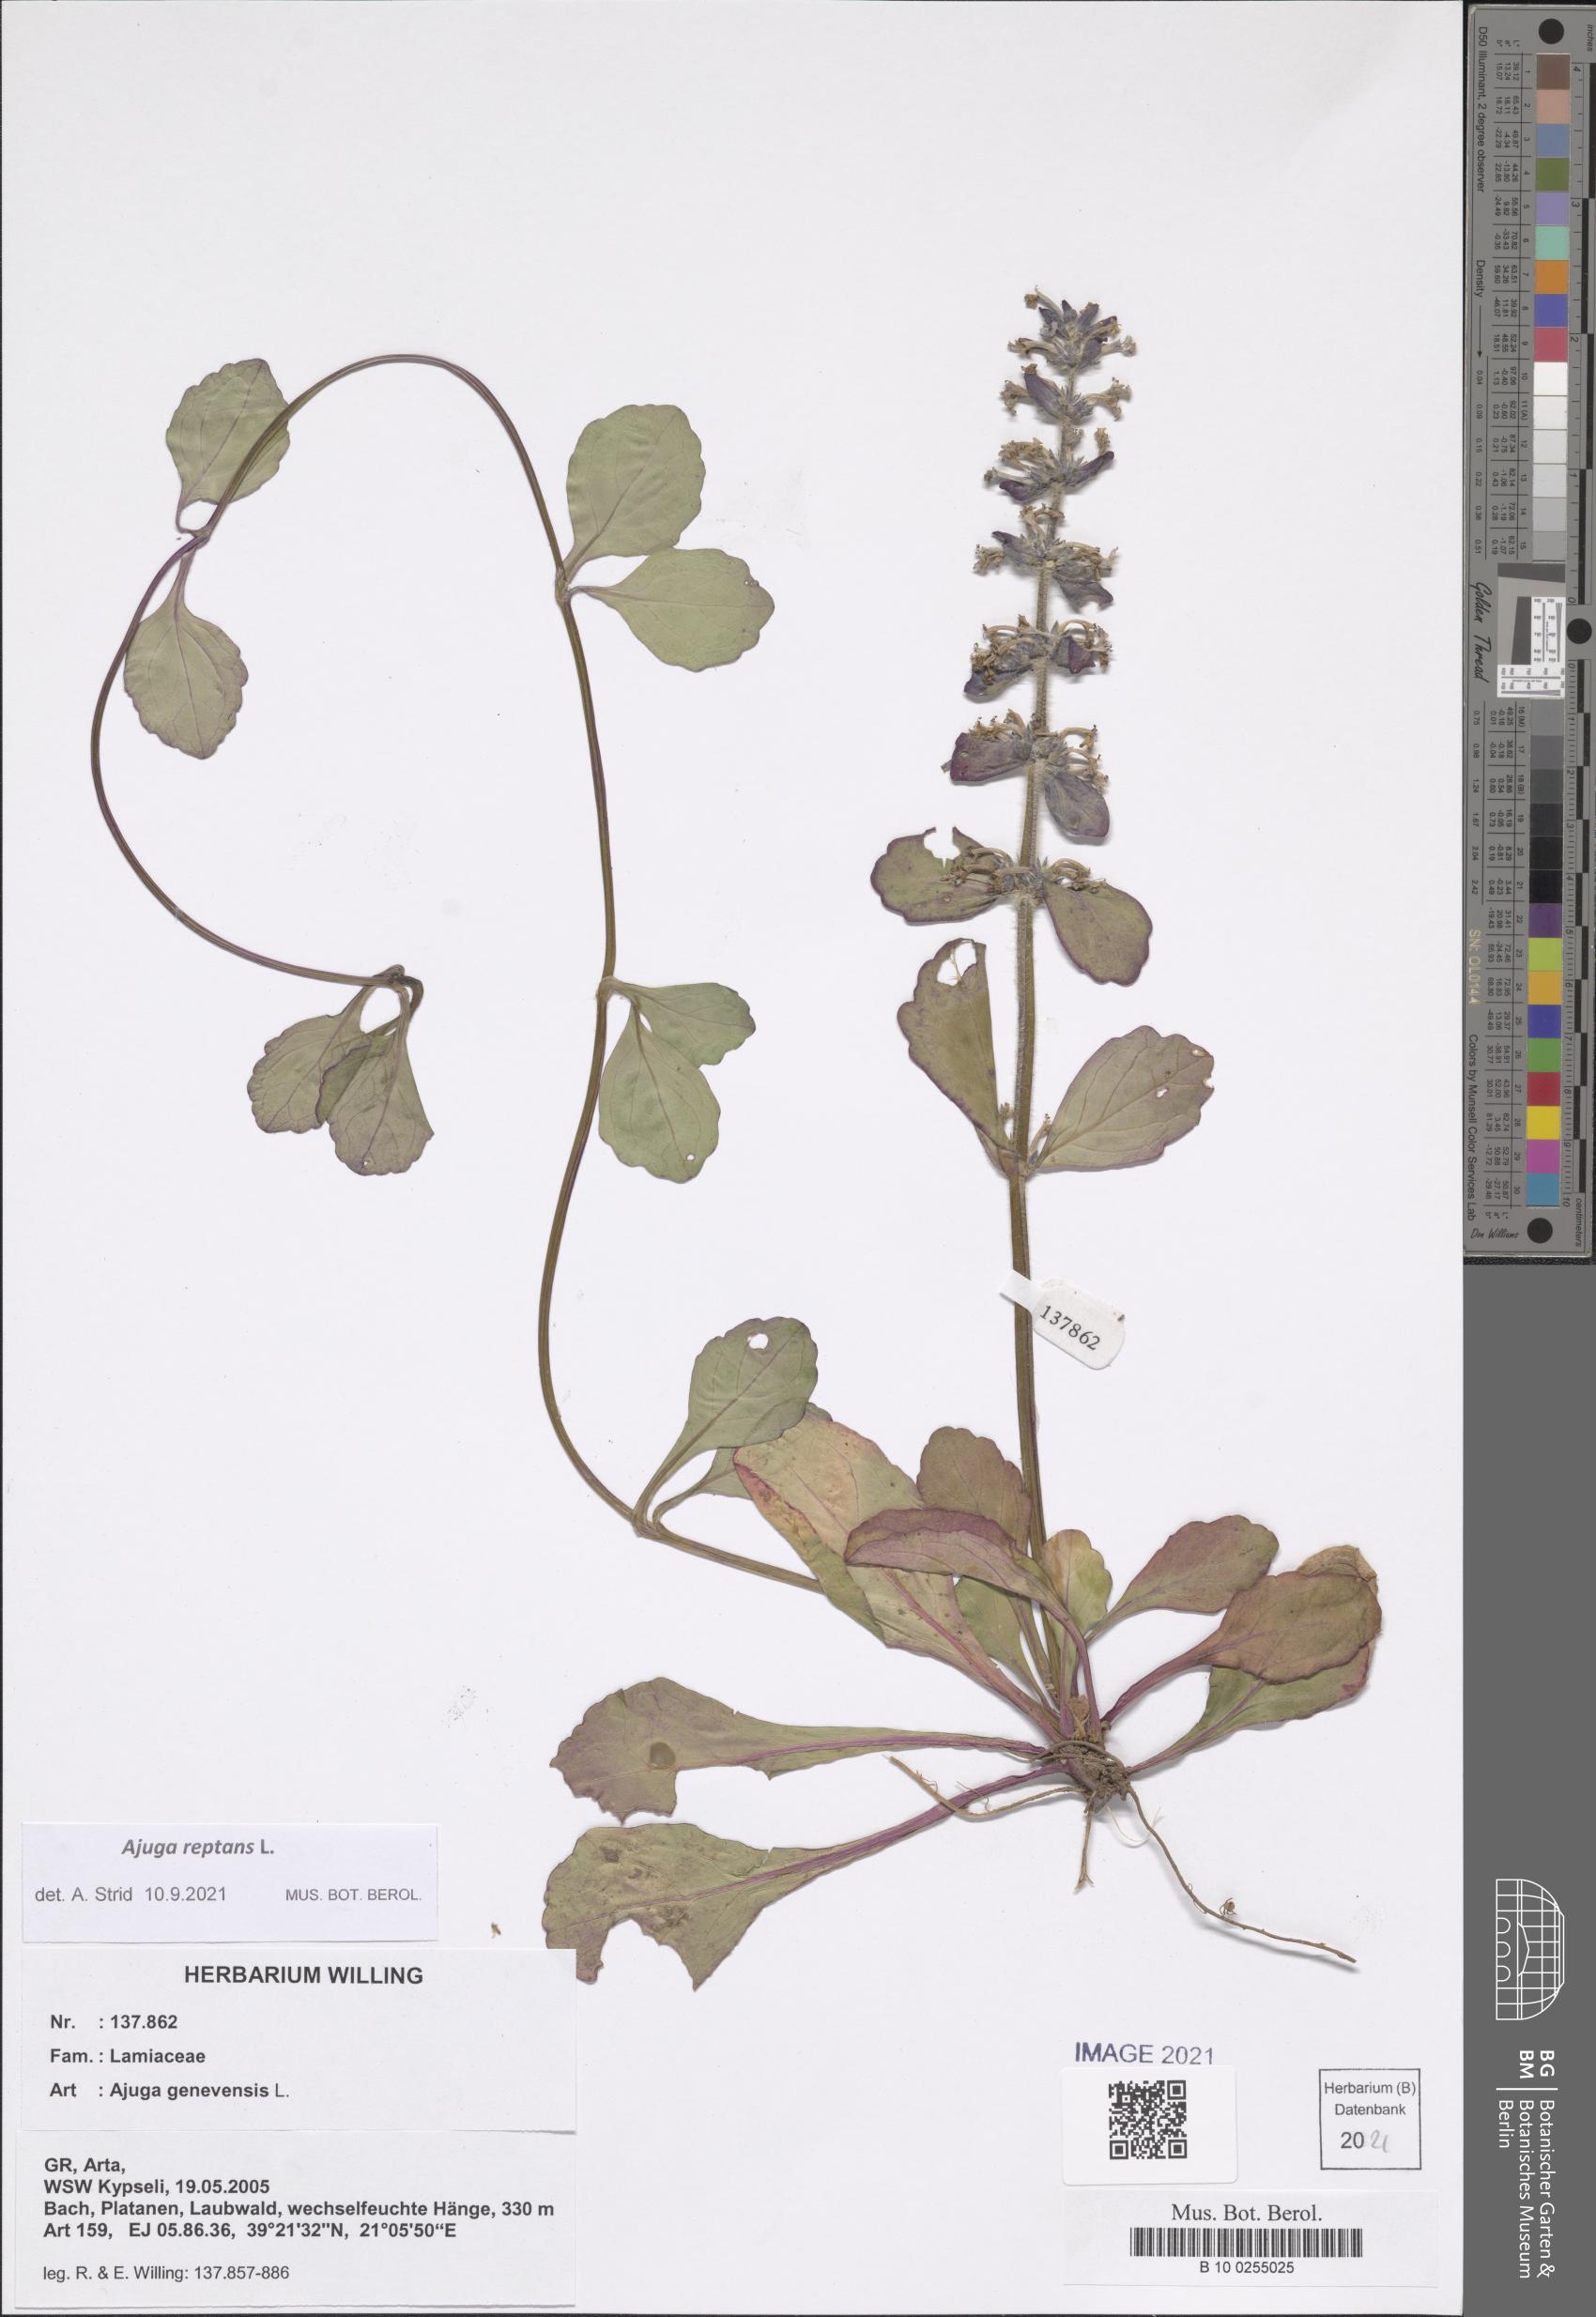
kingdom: Plantae
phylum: Tracheophyta
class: Magnoliopsida
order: Lamiales
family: Lamiaceae
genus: Ajuga
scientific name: Ajuga reptans
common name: Bugle
